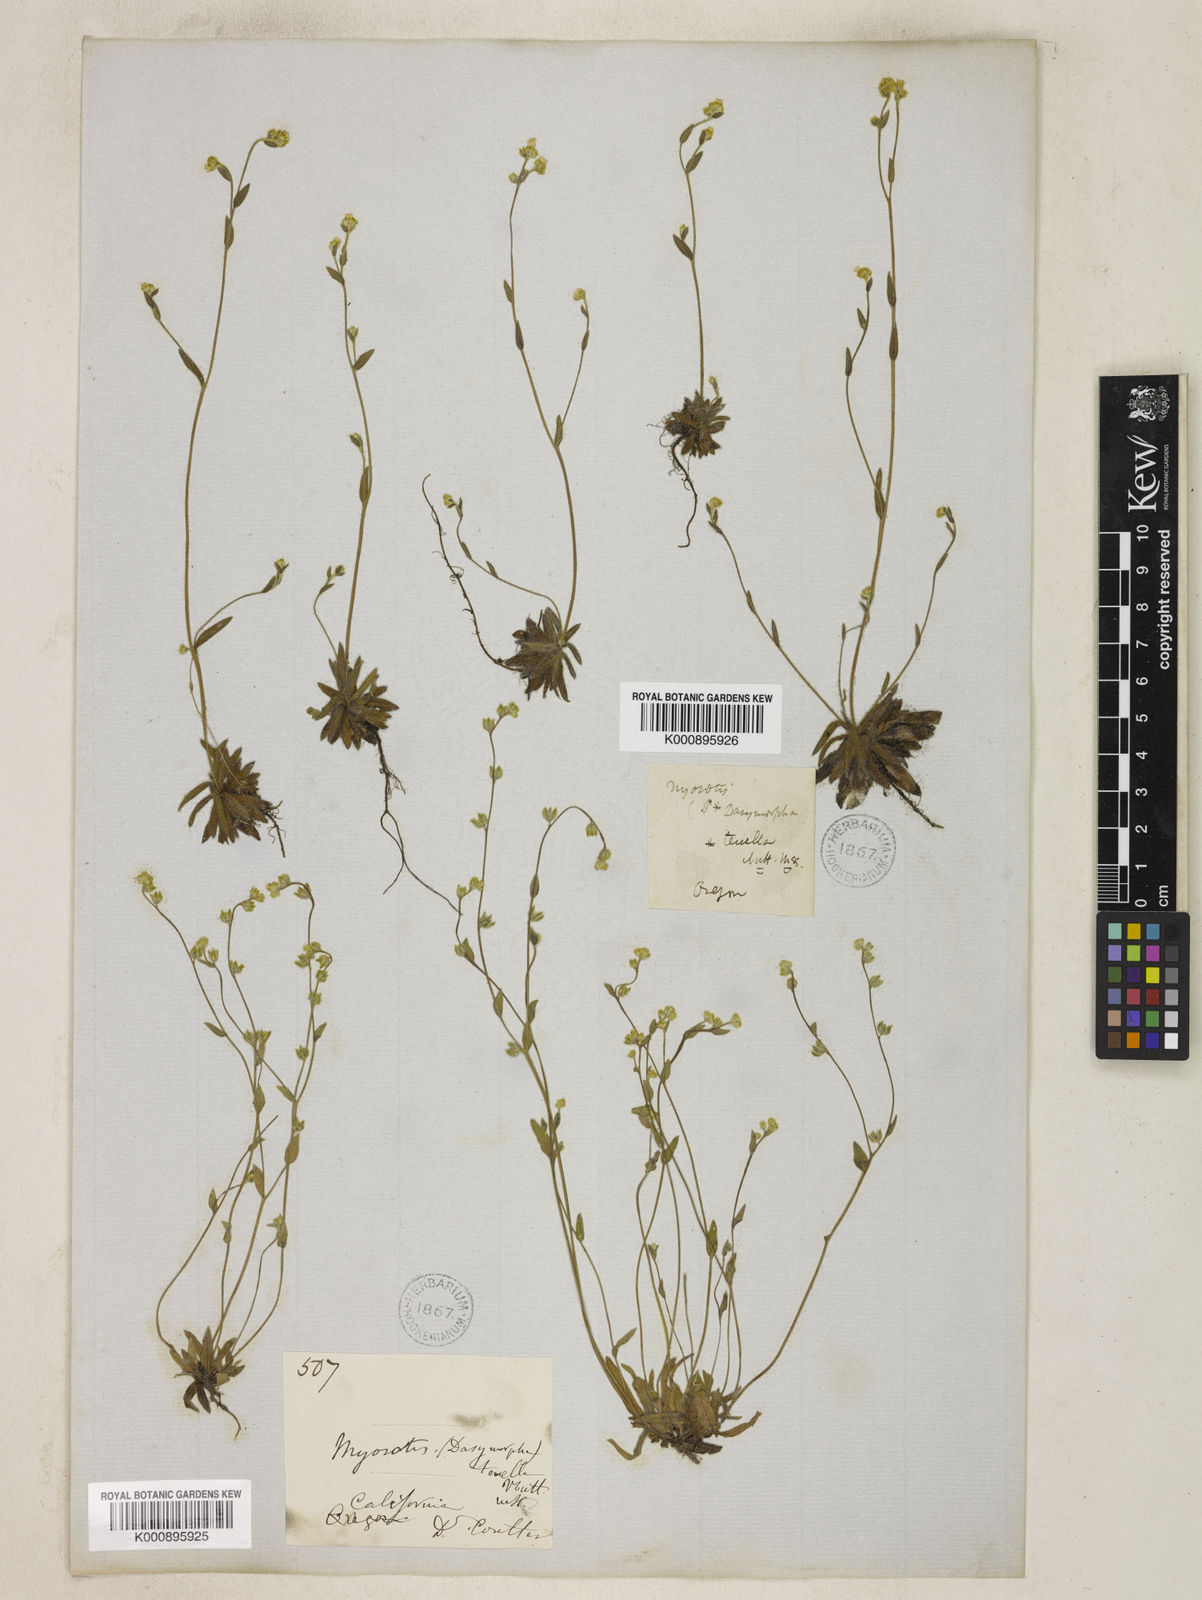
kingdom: Plantae
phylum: Tracheophyta
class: Magnoliopsida
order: Boraginales
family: Boraginaceae
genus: Plagiobothrys
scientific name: Plagiobothrys tenellus
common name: Pacific popcornflower
